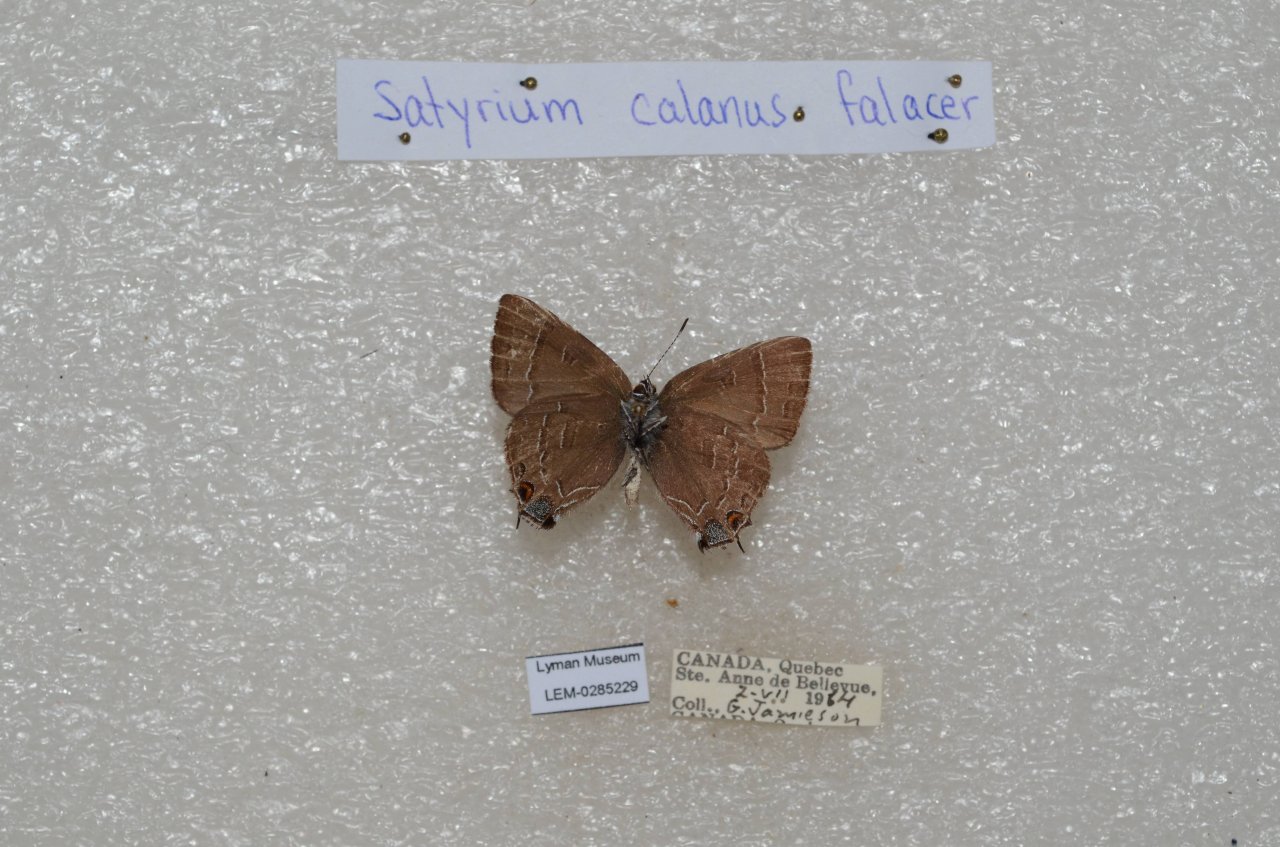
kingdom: Animalia
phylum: Arthropoda
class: Insecta
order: Lepidoptera
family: Lycaenidae
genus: Satyrium
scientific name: Satyrium calanus
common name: Banded Hairstreak
